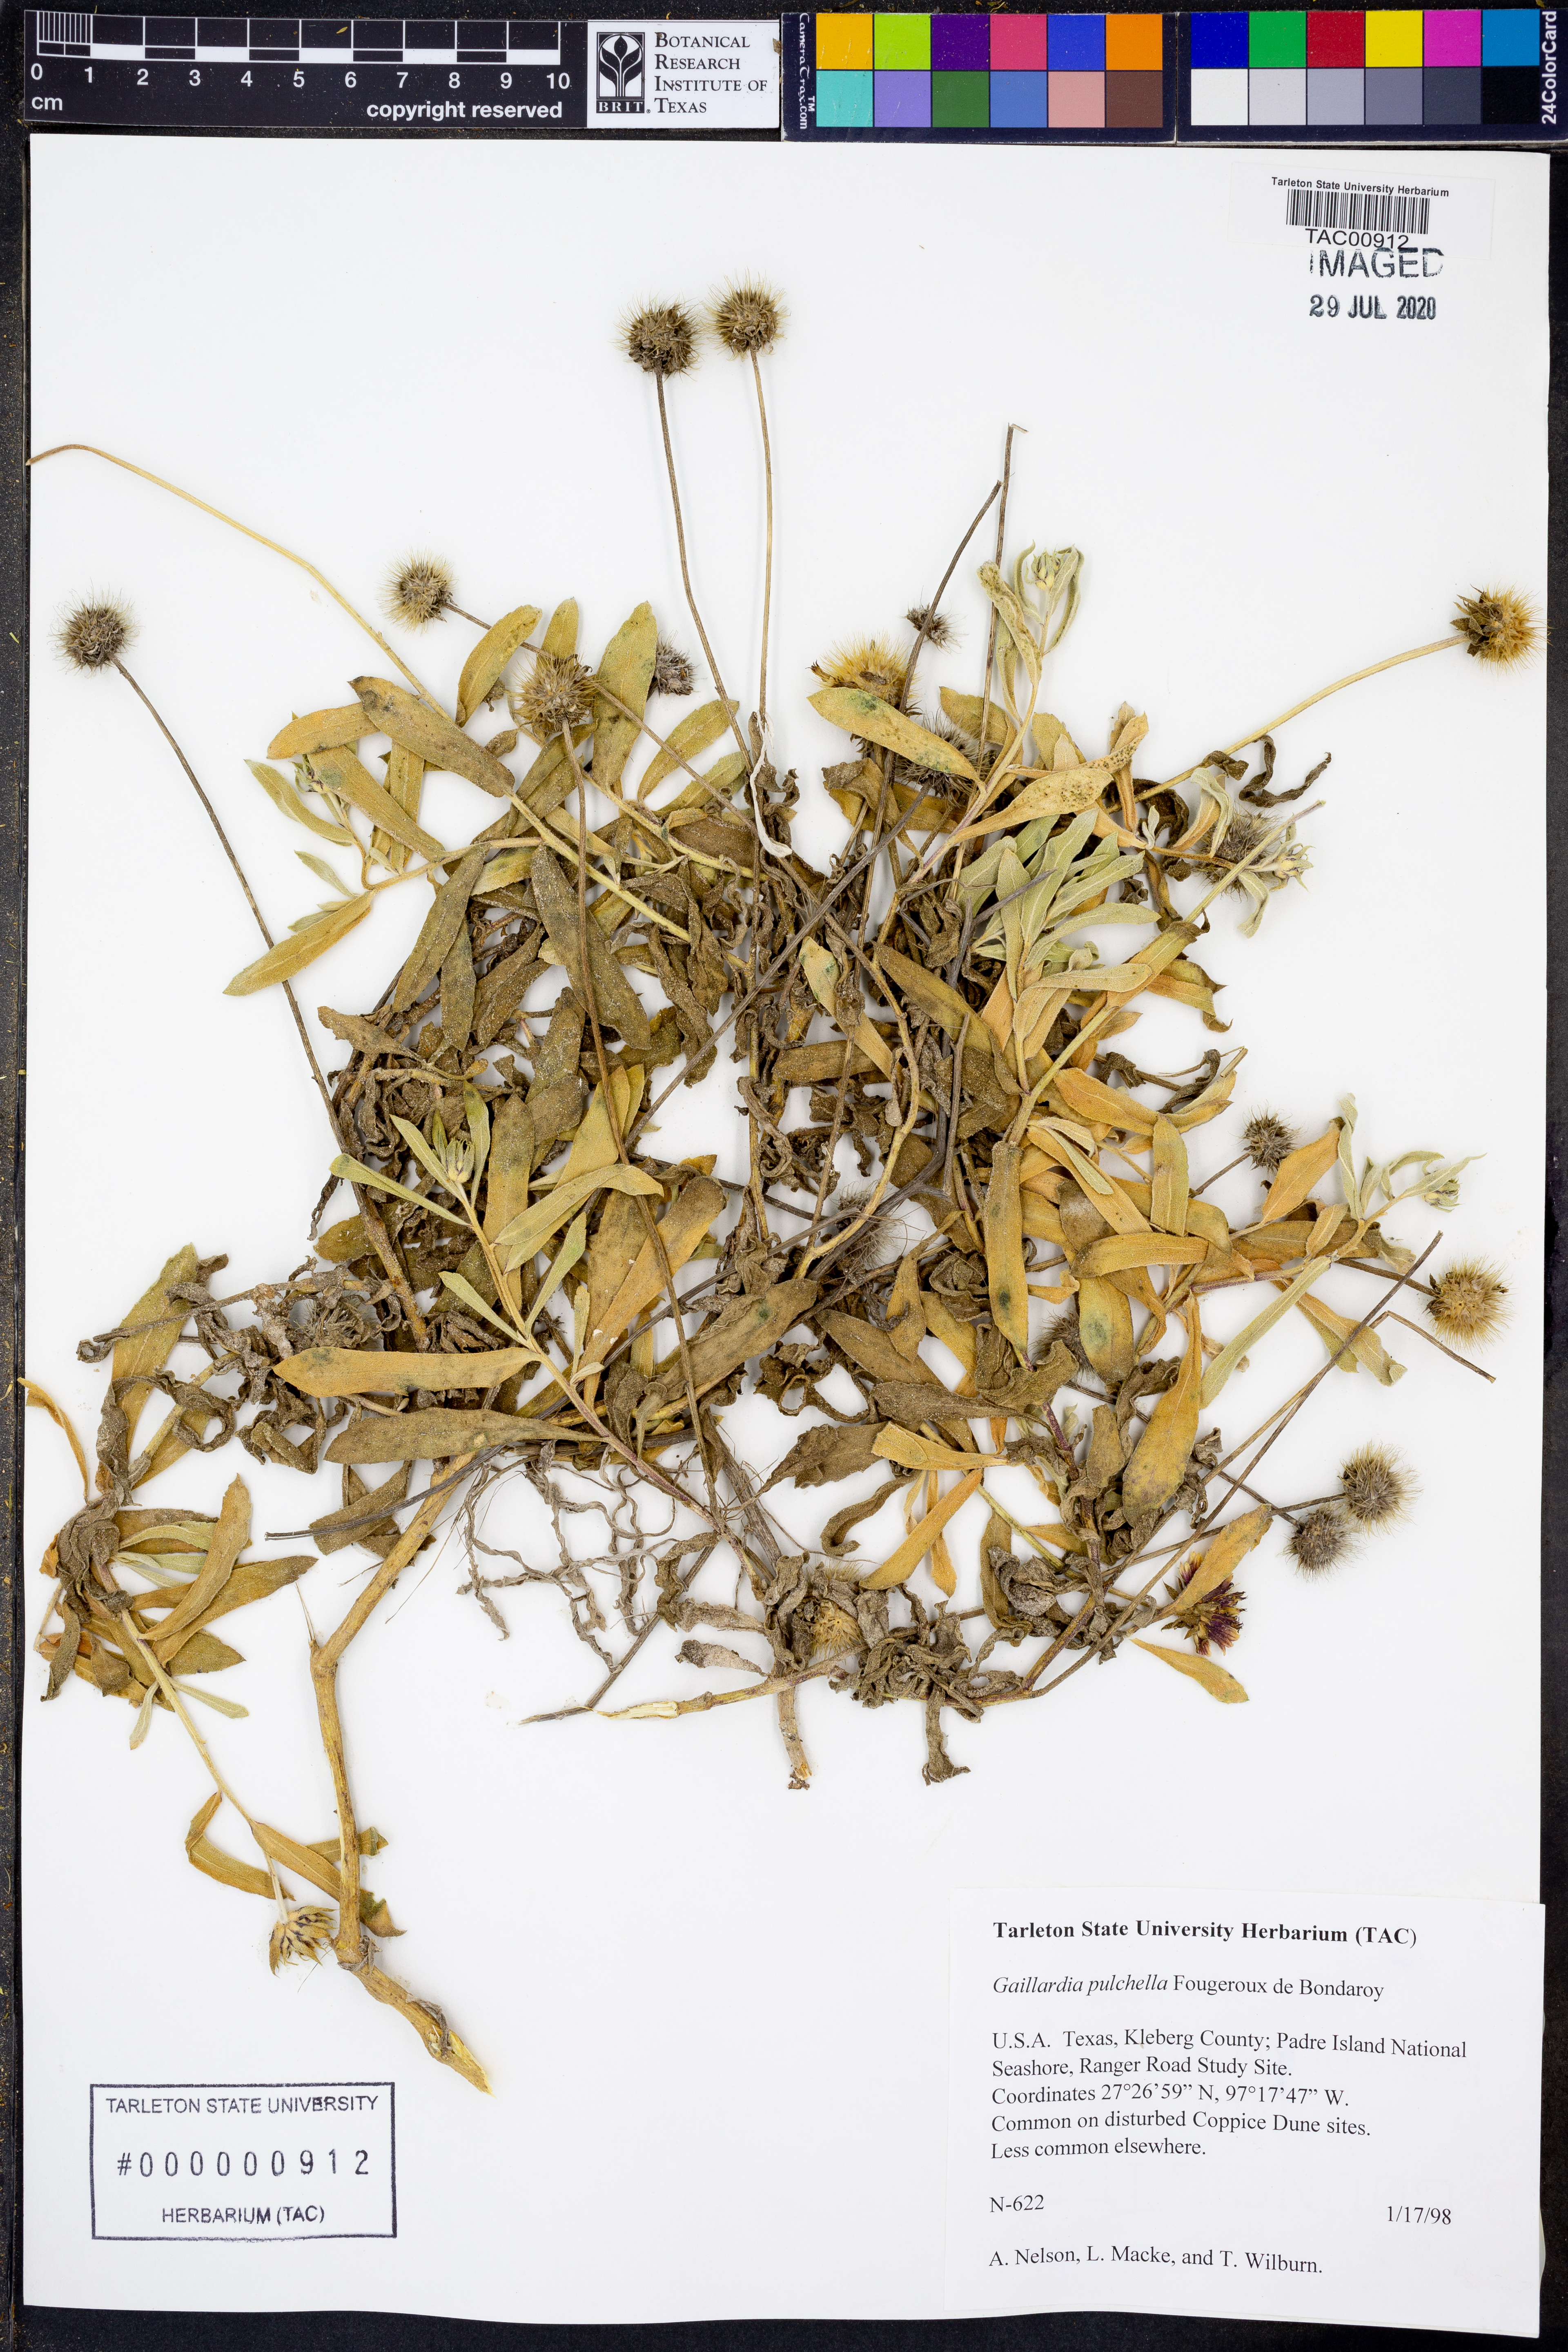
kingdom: Plantae
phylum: Tracheophyta
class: Magnoliopsida
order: Asterales
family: Asteraceae
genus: Gaillardia
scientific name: Gaillardia pulchella
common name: Firewheel
